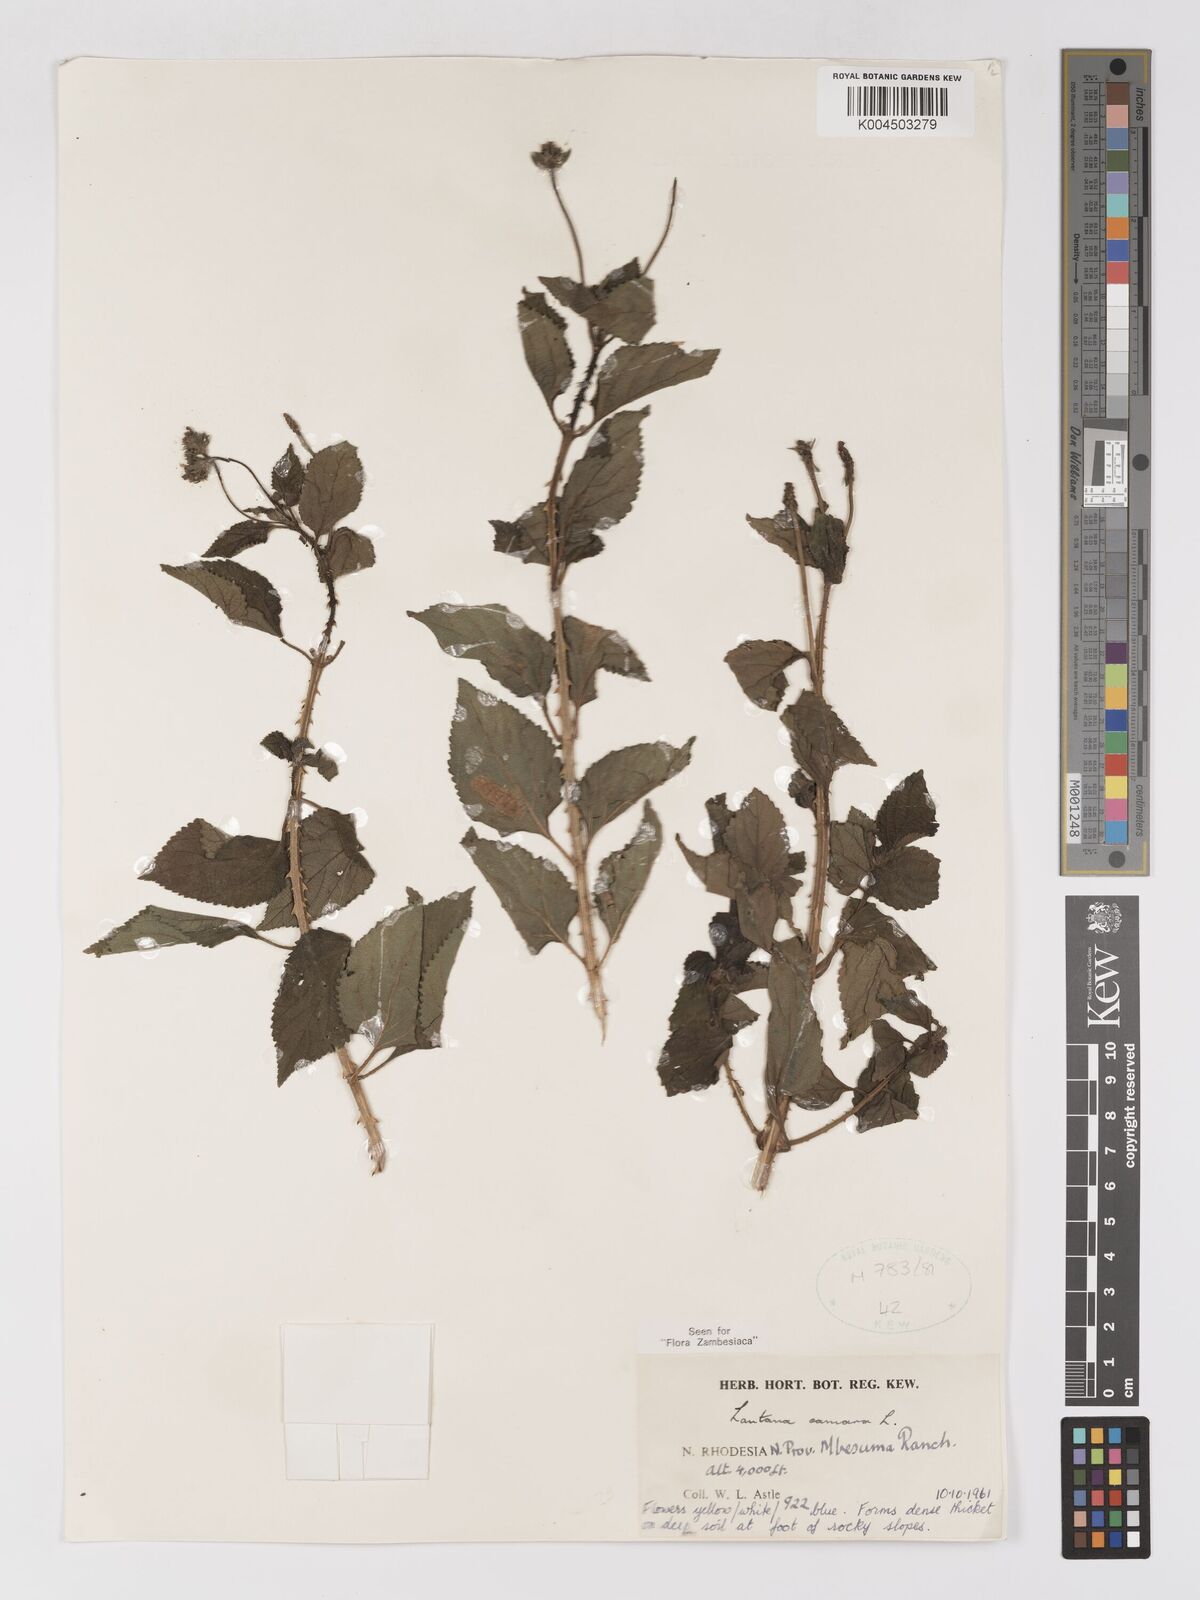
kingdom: Plantae
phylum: Tracheophyta
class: Magnoliopsida
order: Lamiales
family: Verbenaceae
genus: Lantana
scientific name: Lantana camara
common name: Lantana
